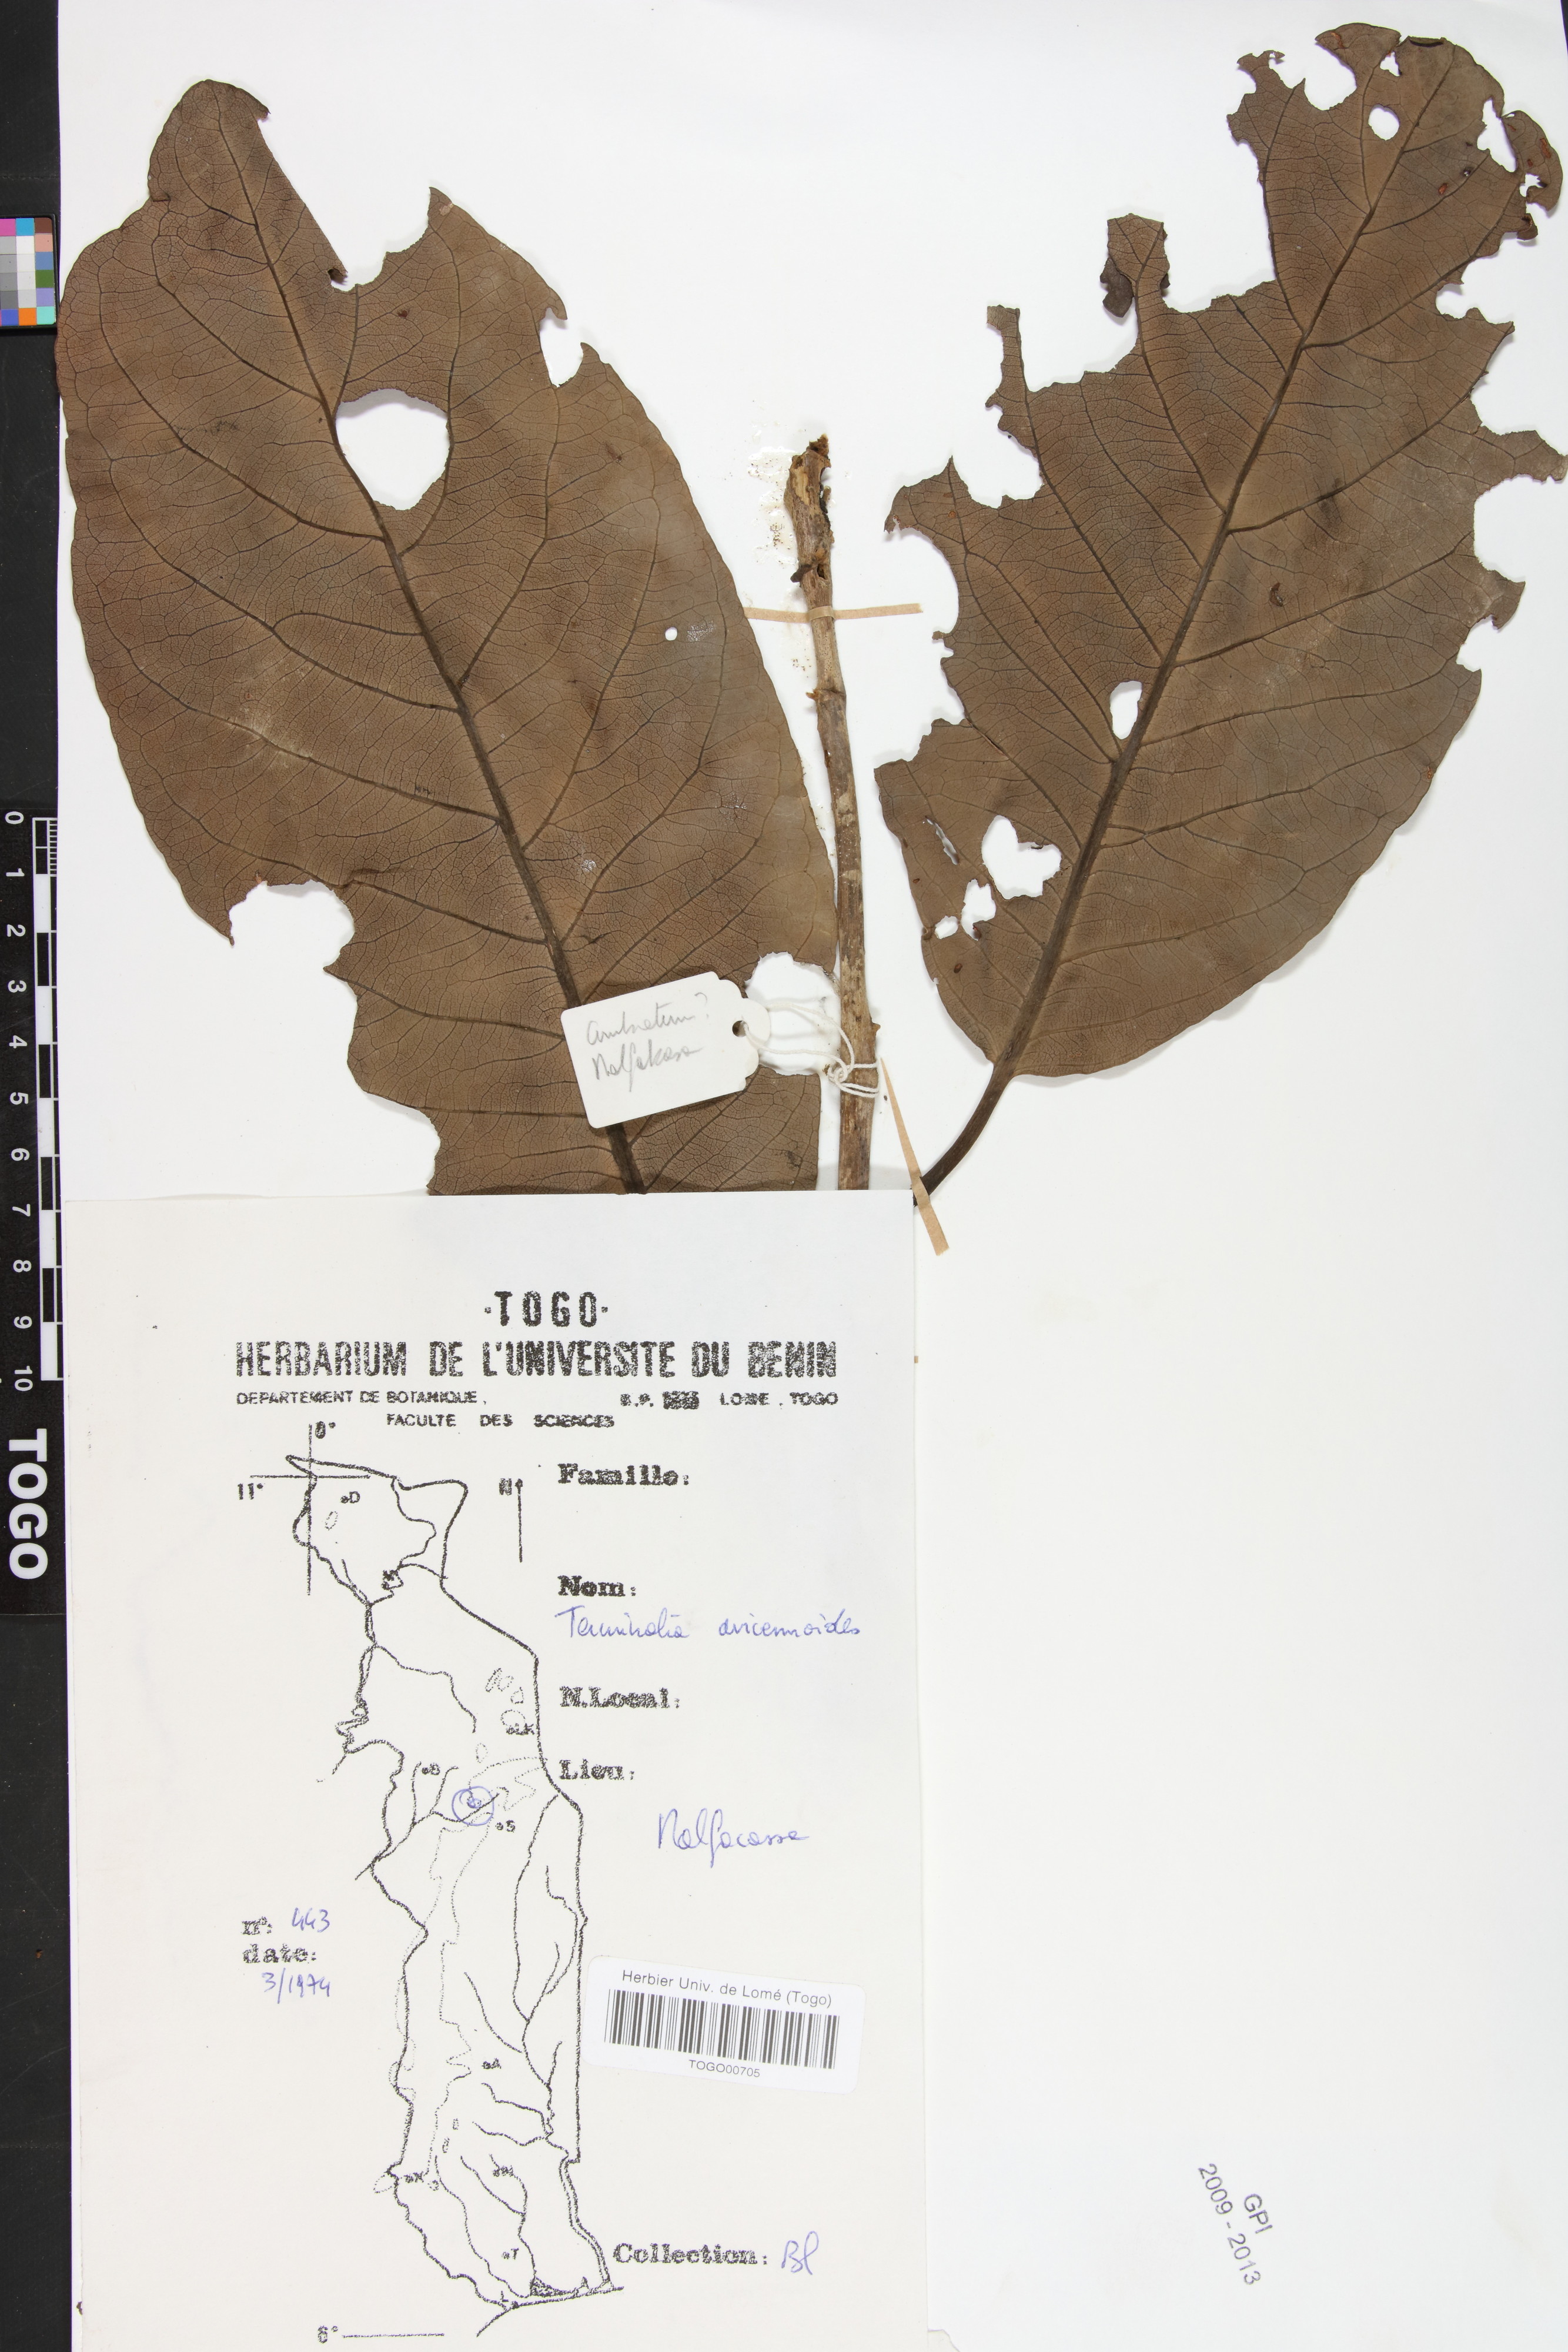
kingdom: Plantae
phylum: Tracheophyta
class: Magnoliopsida
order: Myrtales
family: Combretaceae
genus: Terminalia
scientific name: Terminalia avicennioides
